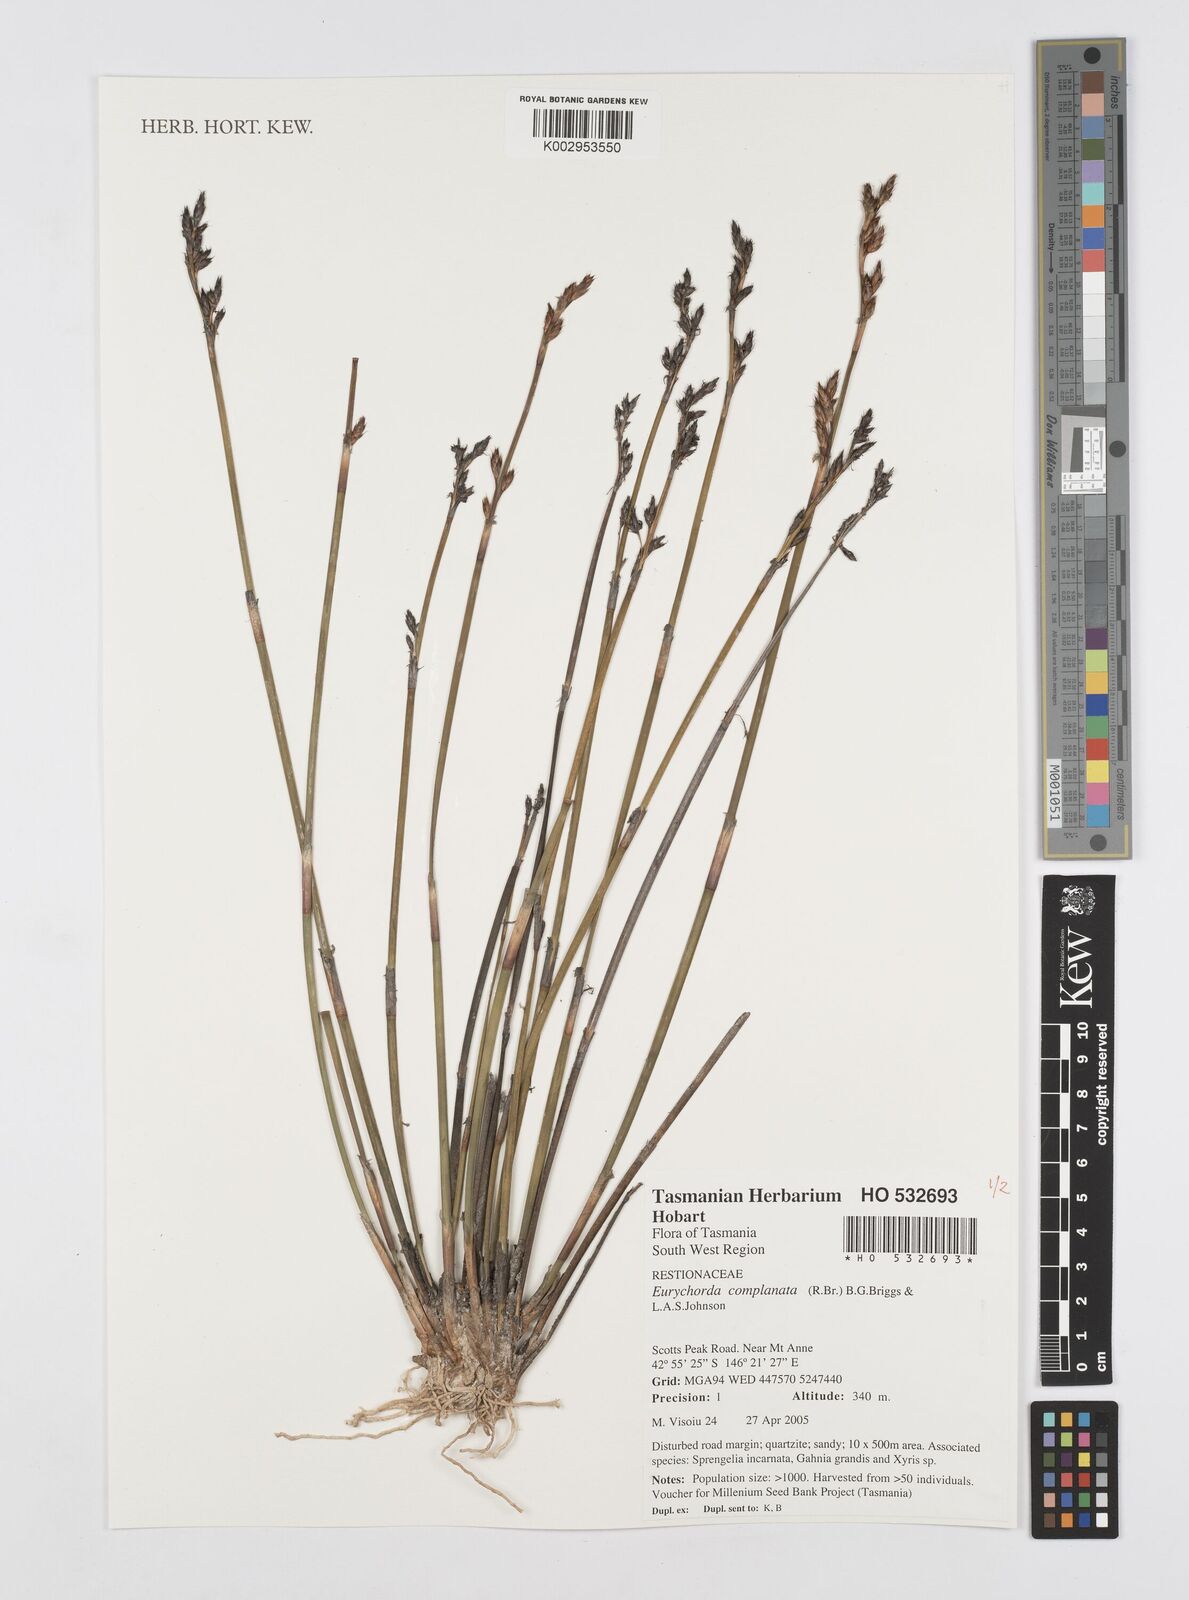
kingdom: Plantae
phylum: Tracheophyta
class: Liliopsida
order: Poales
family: Restionaceae
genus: Eurychorda
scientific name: Eurychorda complanata
